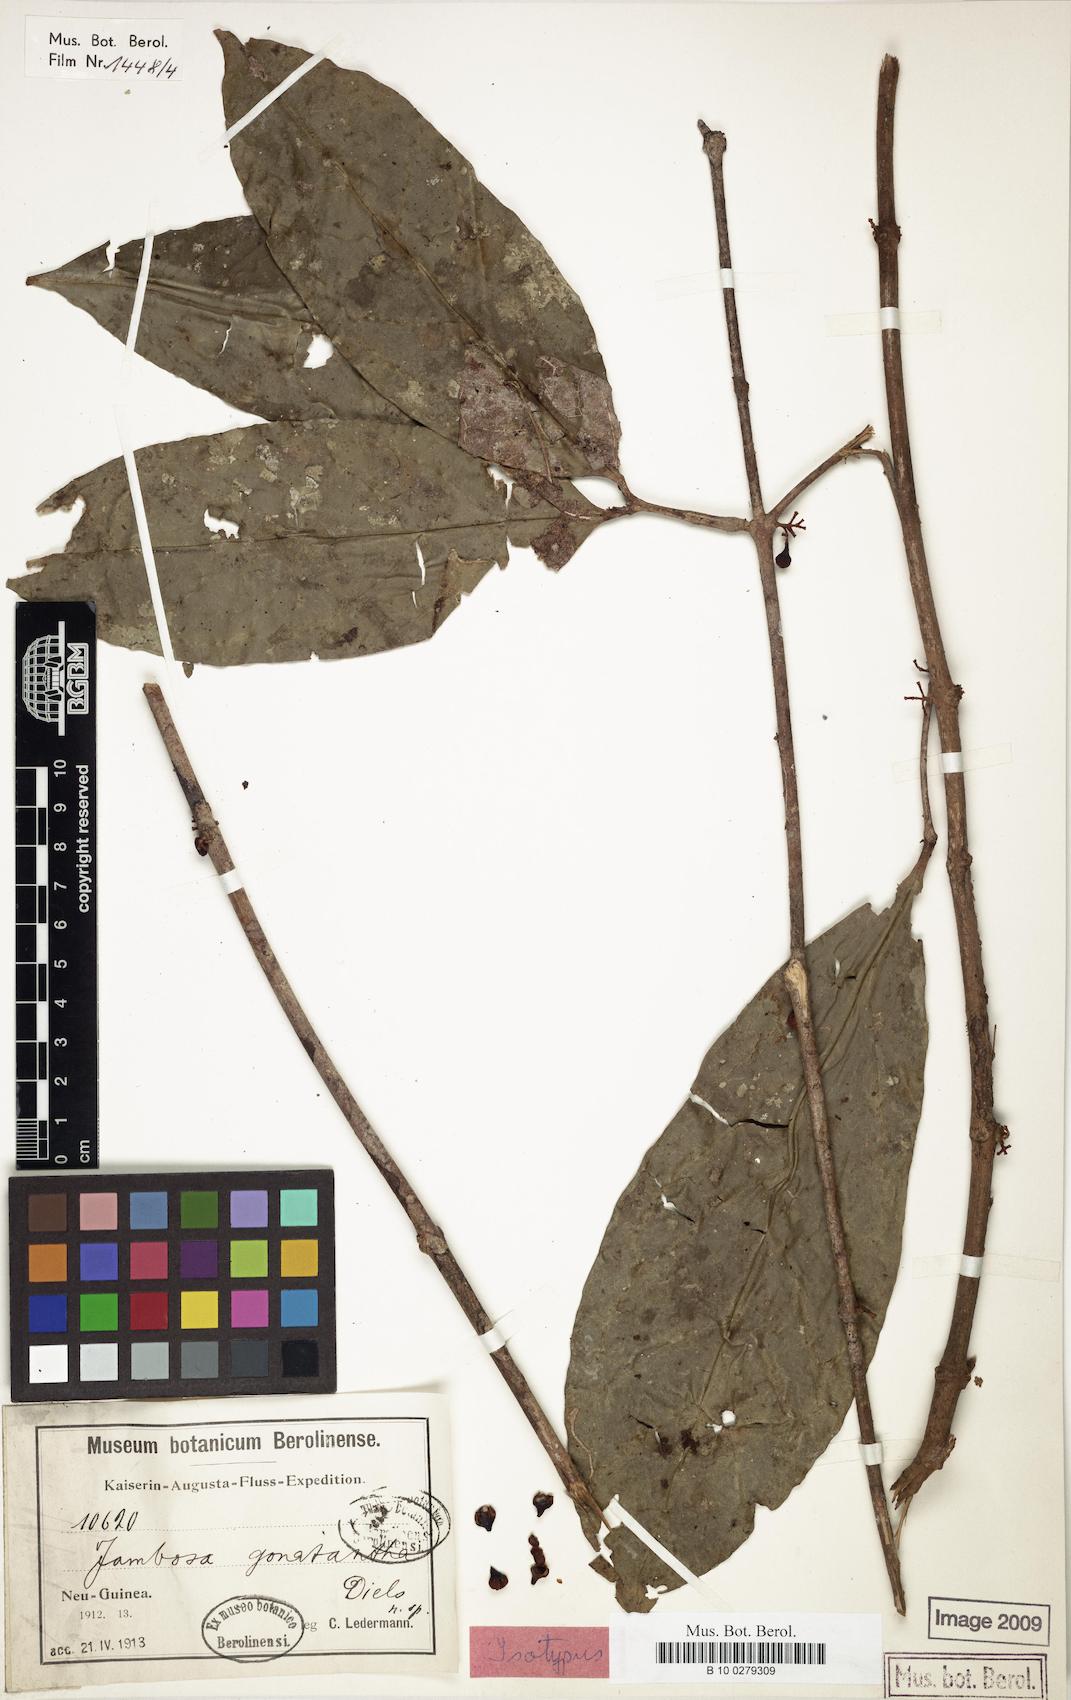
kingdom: Plantae
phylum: Tracheophyta
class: Magnoliopsida
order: Myrtales
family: Myrtaceae
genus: Syzygium
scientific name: Syzygium gonatanthum
